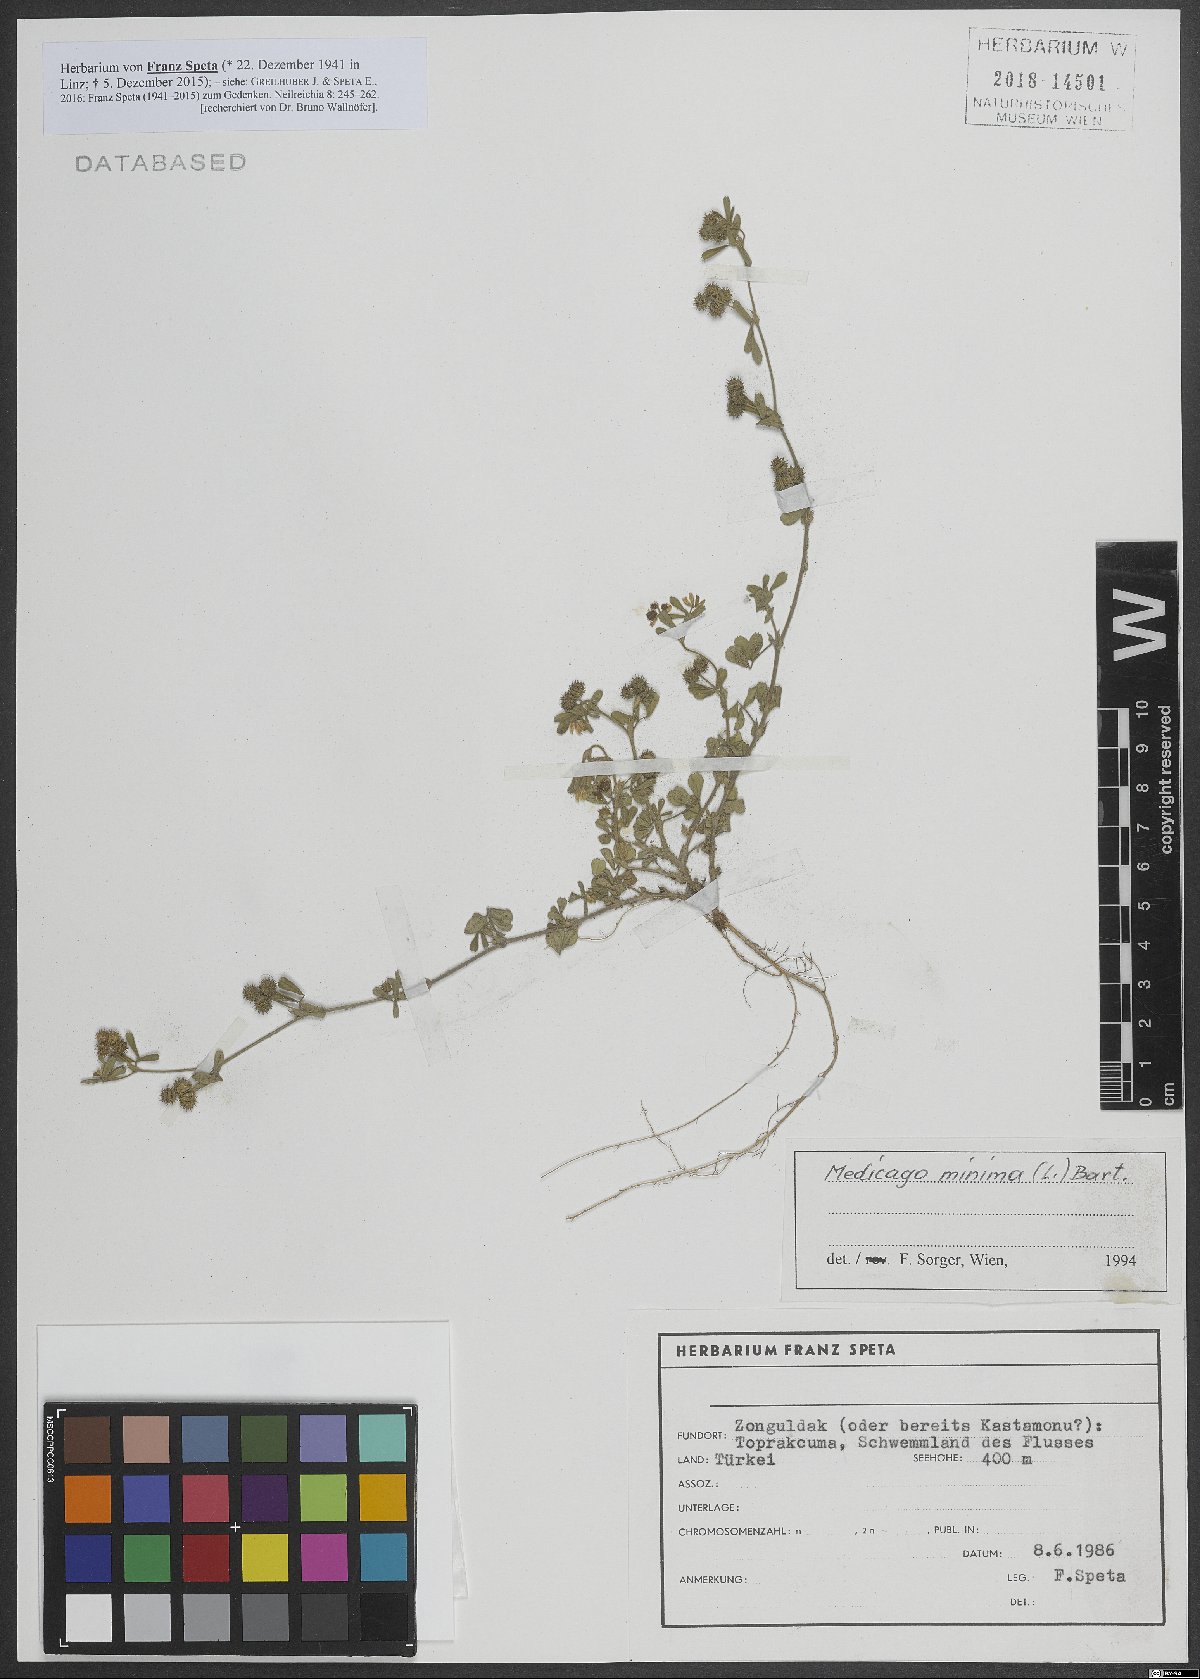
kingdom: Plantae
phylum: Tracheophyta
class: Magnoliopsida
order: Fabales
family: Fabaceae
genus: Medicago
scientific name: Medicago minima
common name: Little bur-clover
